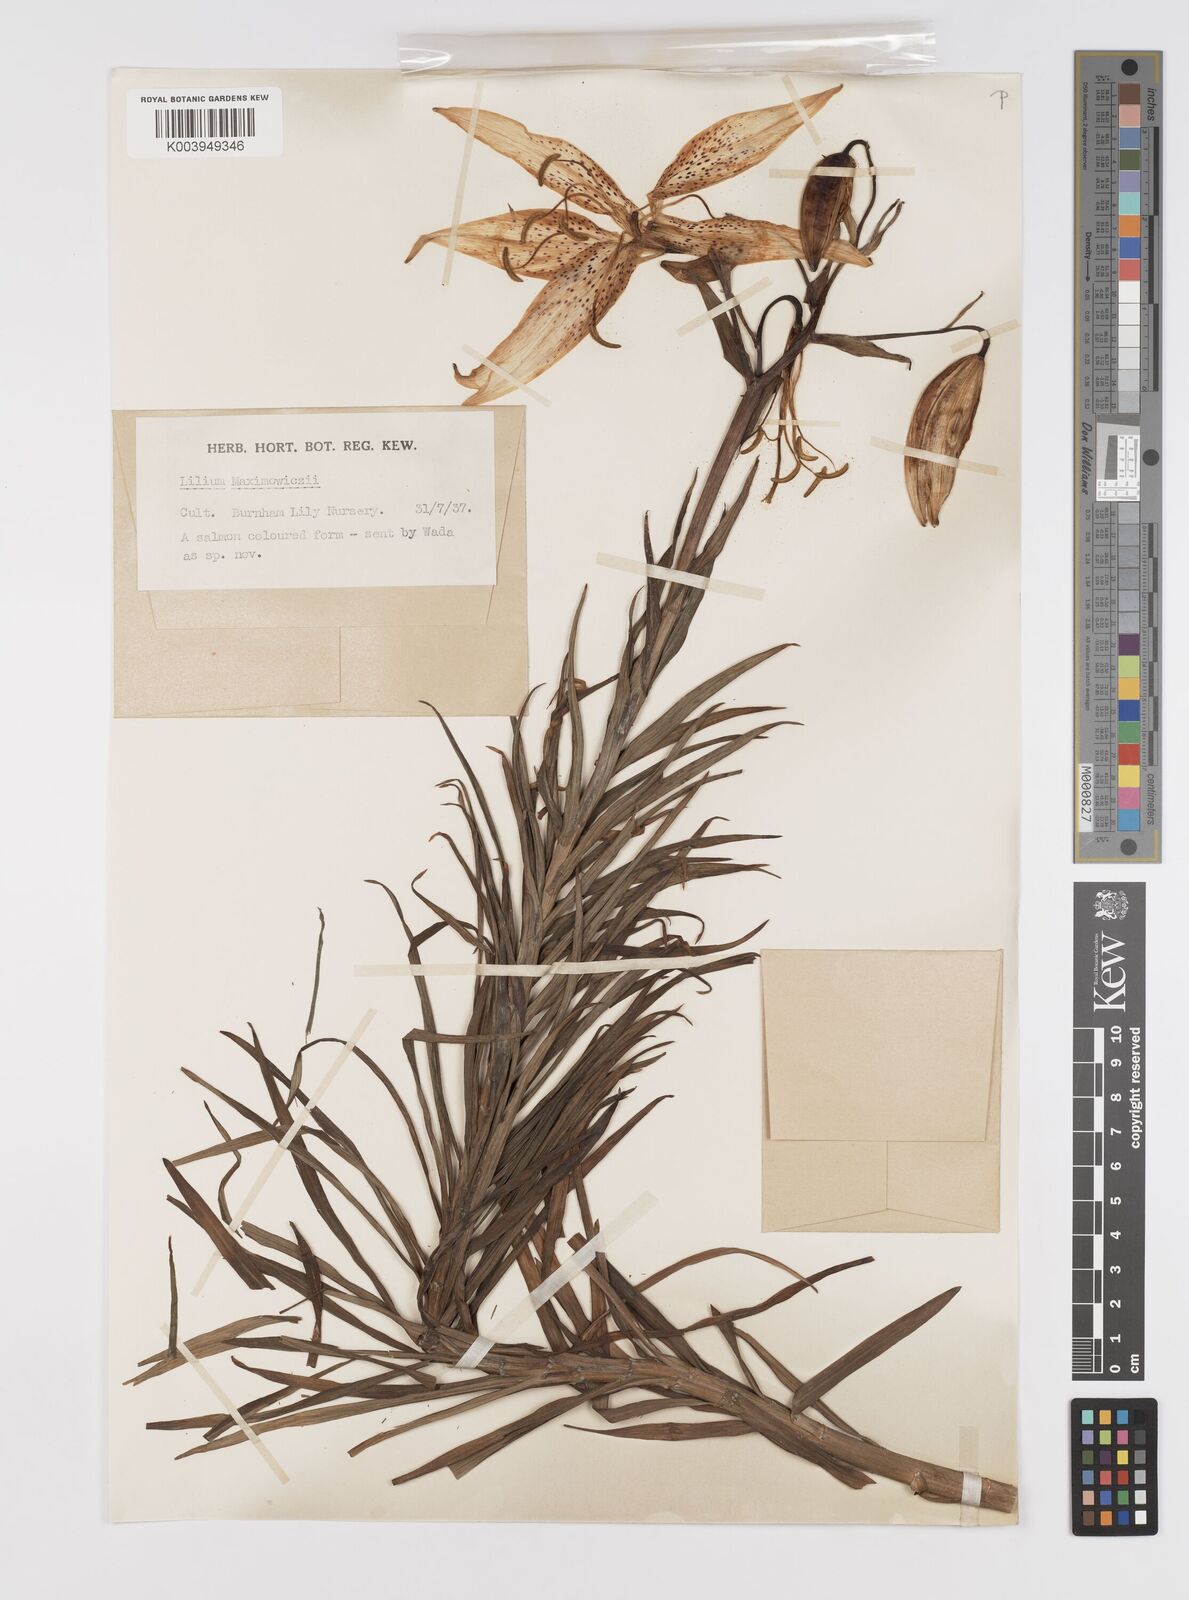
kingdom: Plantae
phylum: Tracheophyta
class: Liliopsida
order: Liliales
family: Liliaceae
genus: Lilium
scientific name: Lilium leichtlinii
